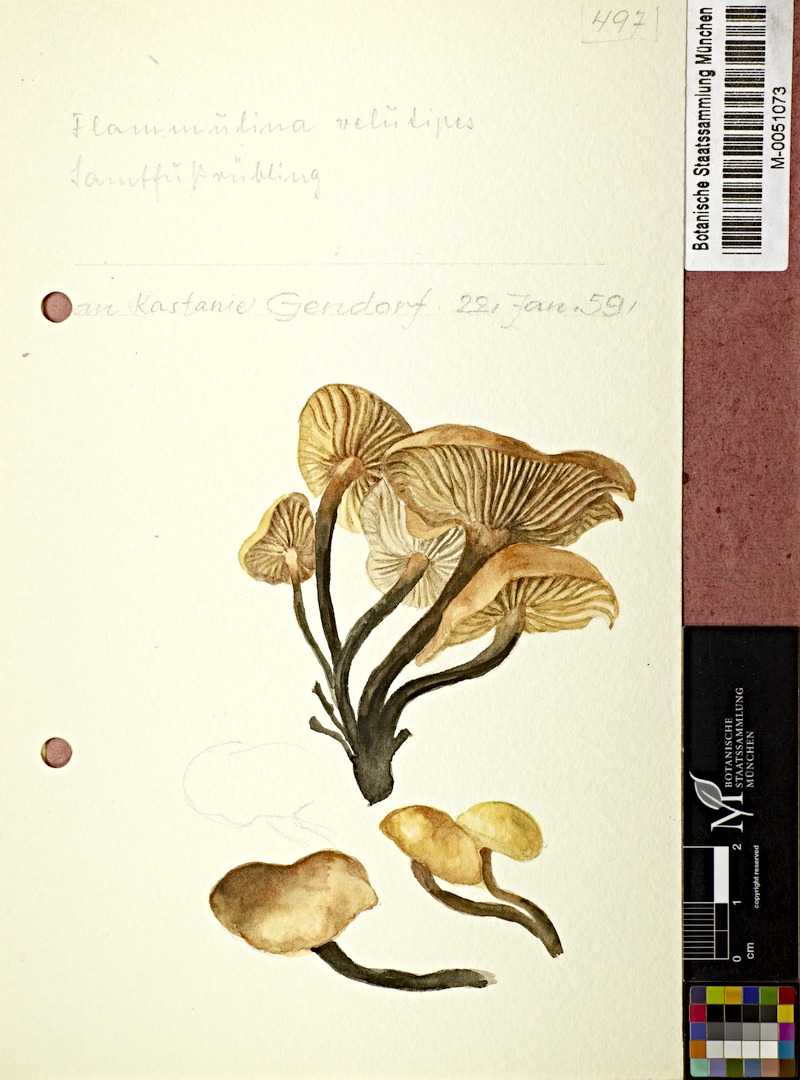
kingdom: Fungi
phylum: Basidiomycota
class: Agaricomycetes
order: Agaricales
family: Physalacriaceae
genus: Flammulina
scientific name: Flammulina velutipes
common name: Velvet shank
